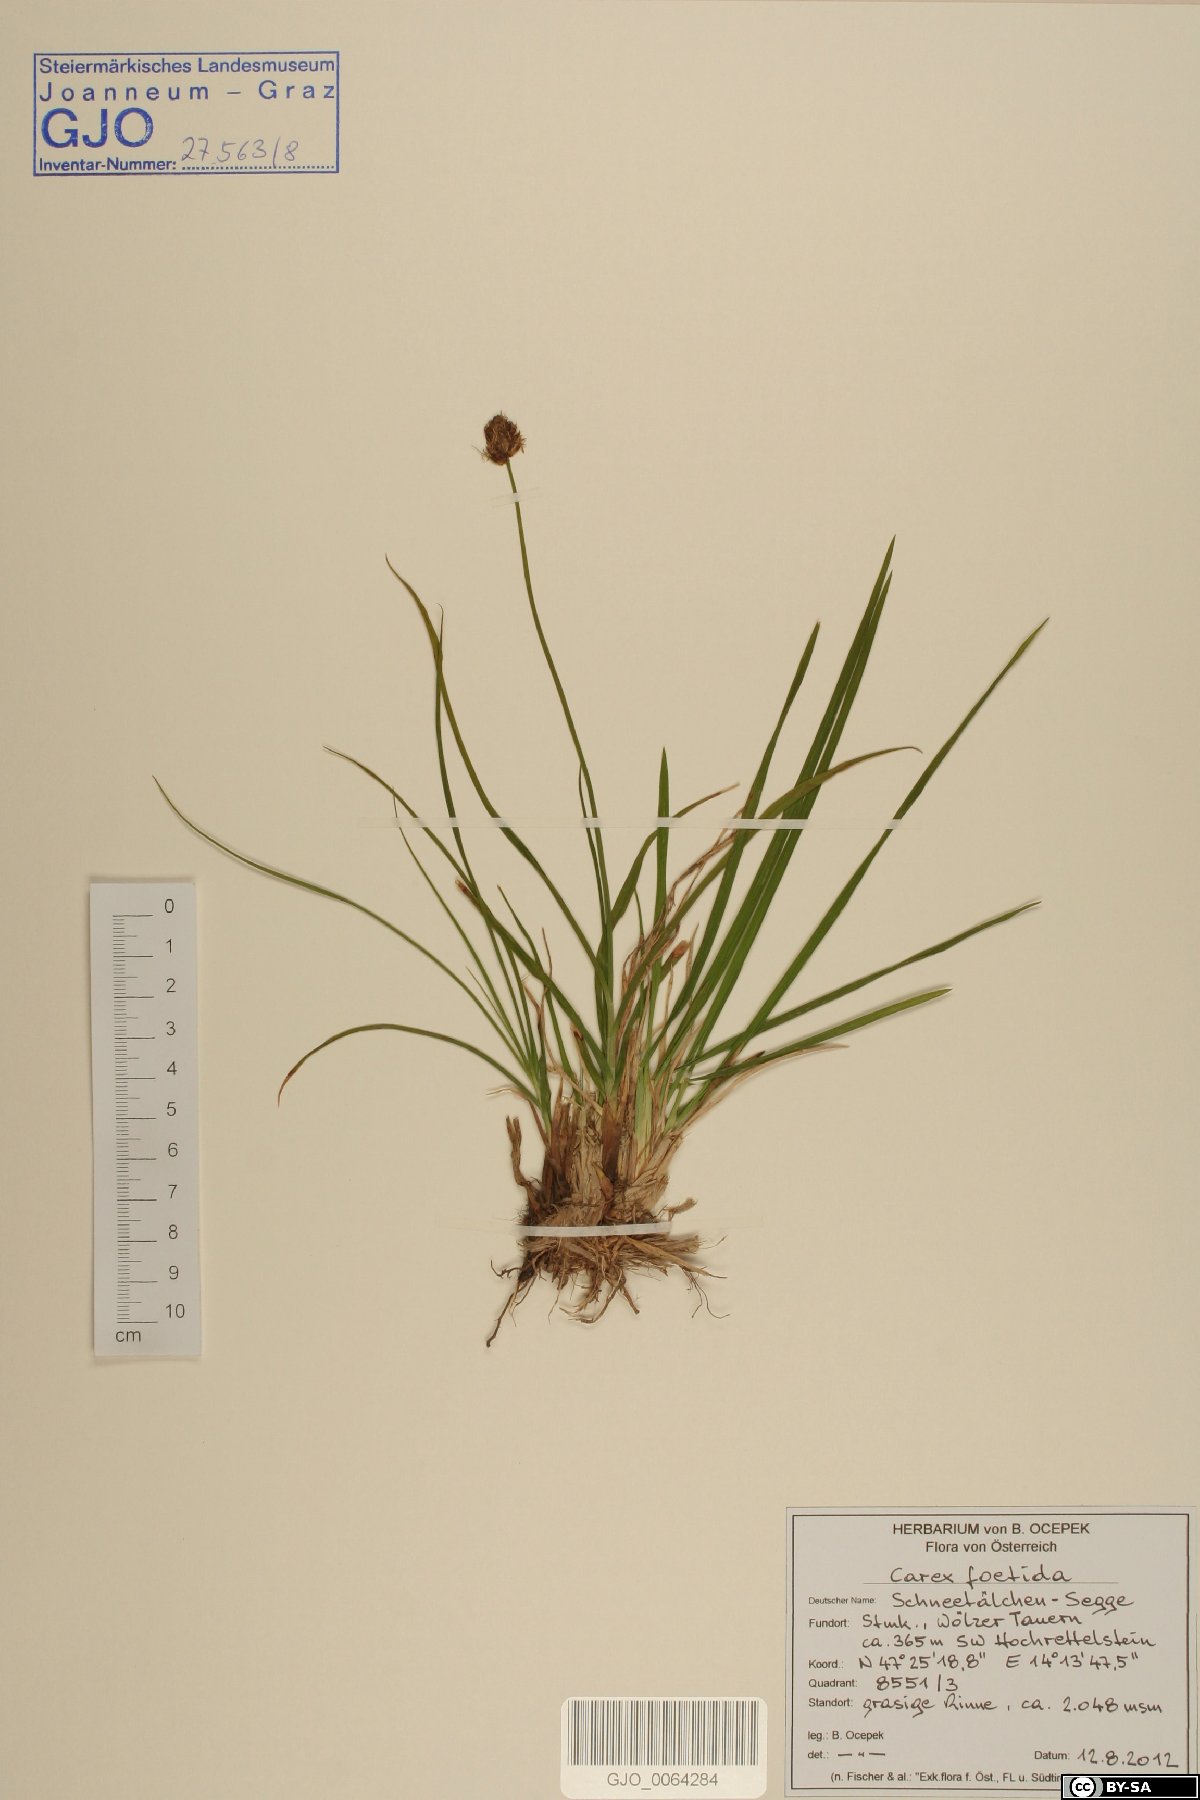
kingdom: Plantae
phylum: Tracheophyta
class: Liliopsida
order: Poales
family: Cyperaceae
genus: Carex
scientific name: Carex foetida
